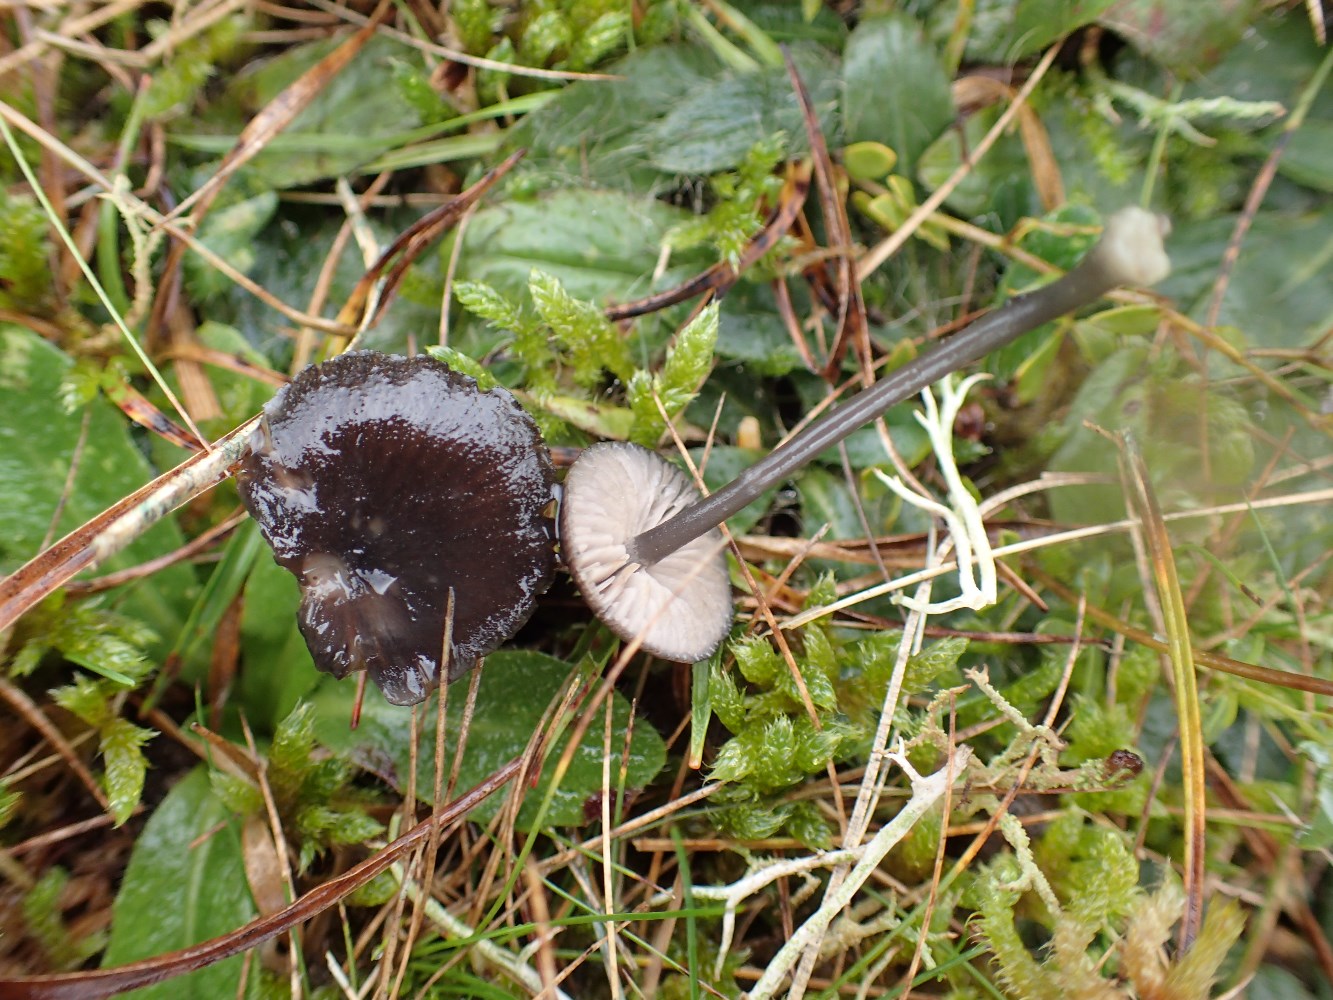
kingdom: Fungi
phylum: Basidiomycota
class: Agaricomycetes
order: Agaricales
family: Entolomataceae
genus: Entoloma
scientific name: Entoloma
